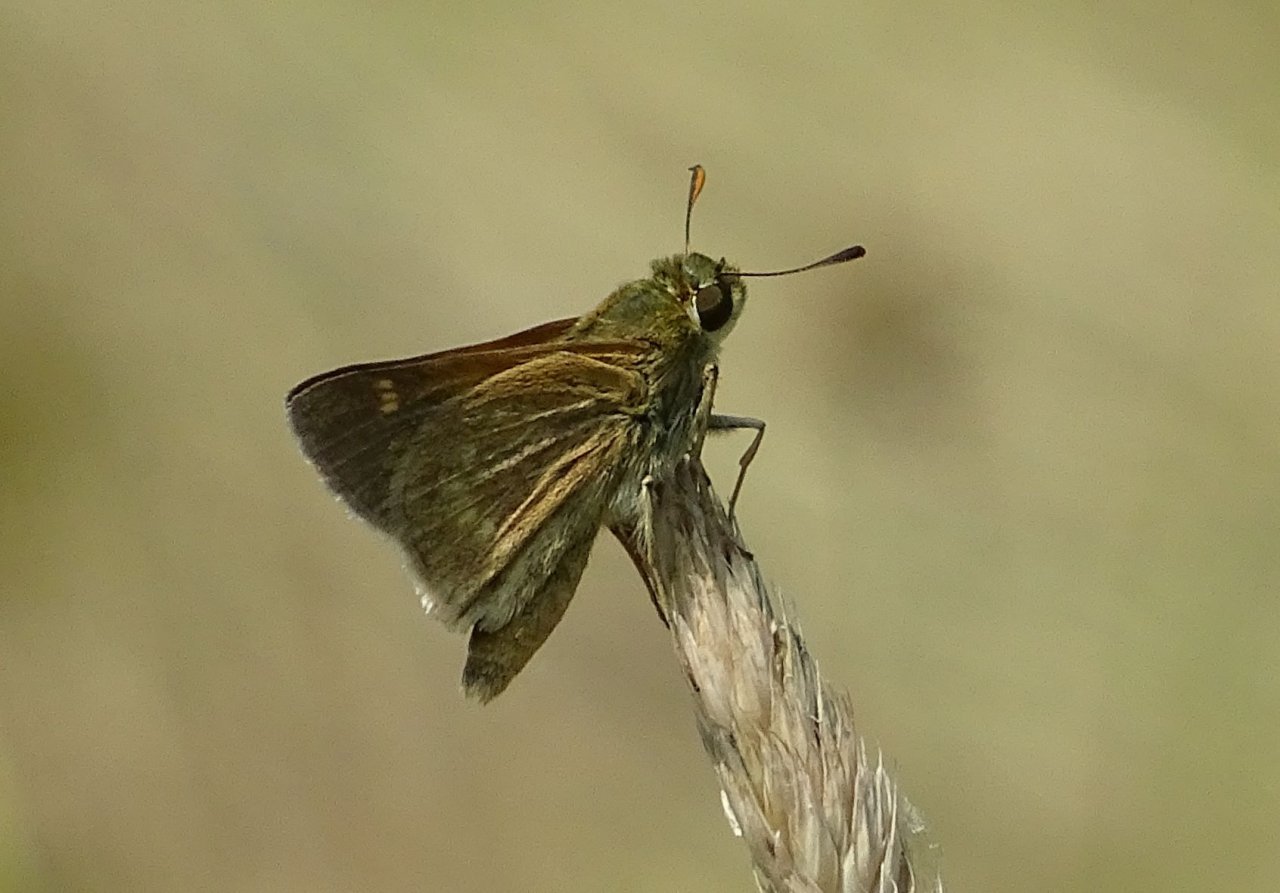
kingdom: Animalia
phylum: Arthropoda
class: Insecta
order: Lepidoptera
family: Hesperiidae
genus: Polites
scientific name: Polites themistocles
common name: Tawny-edged Skipper
